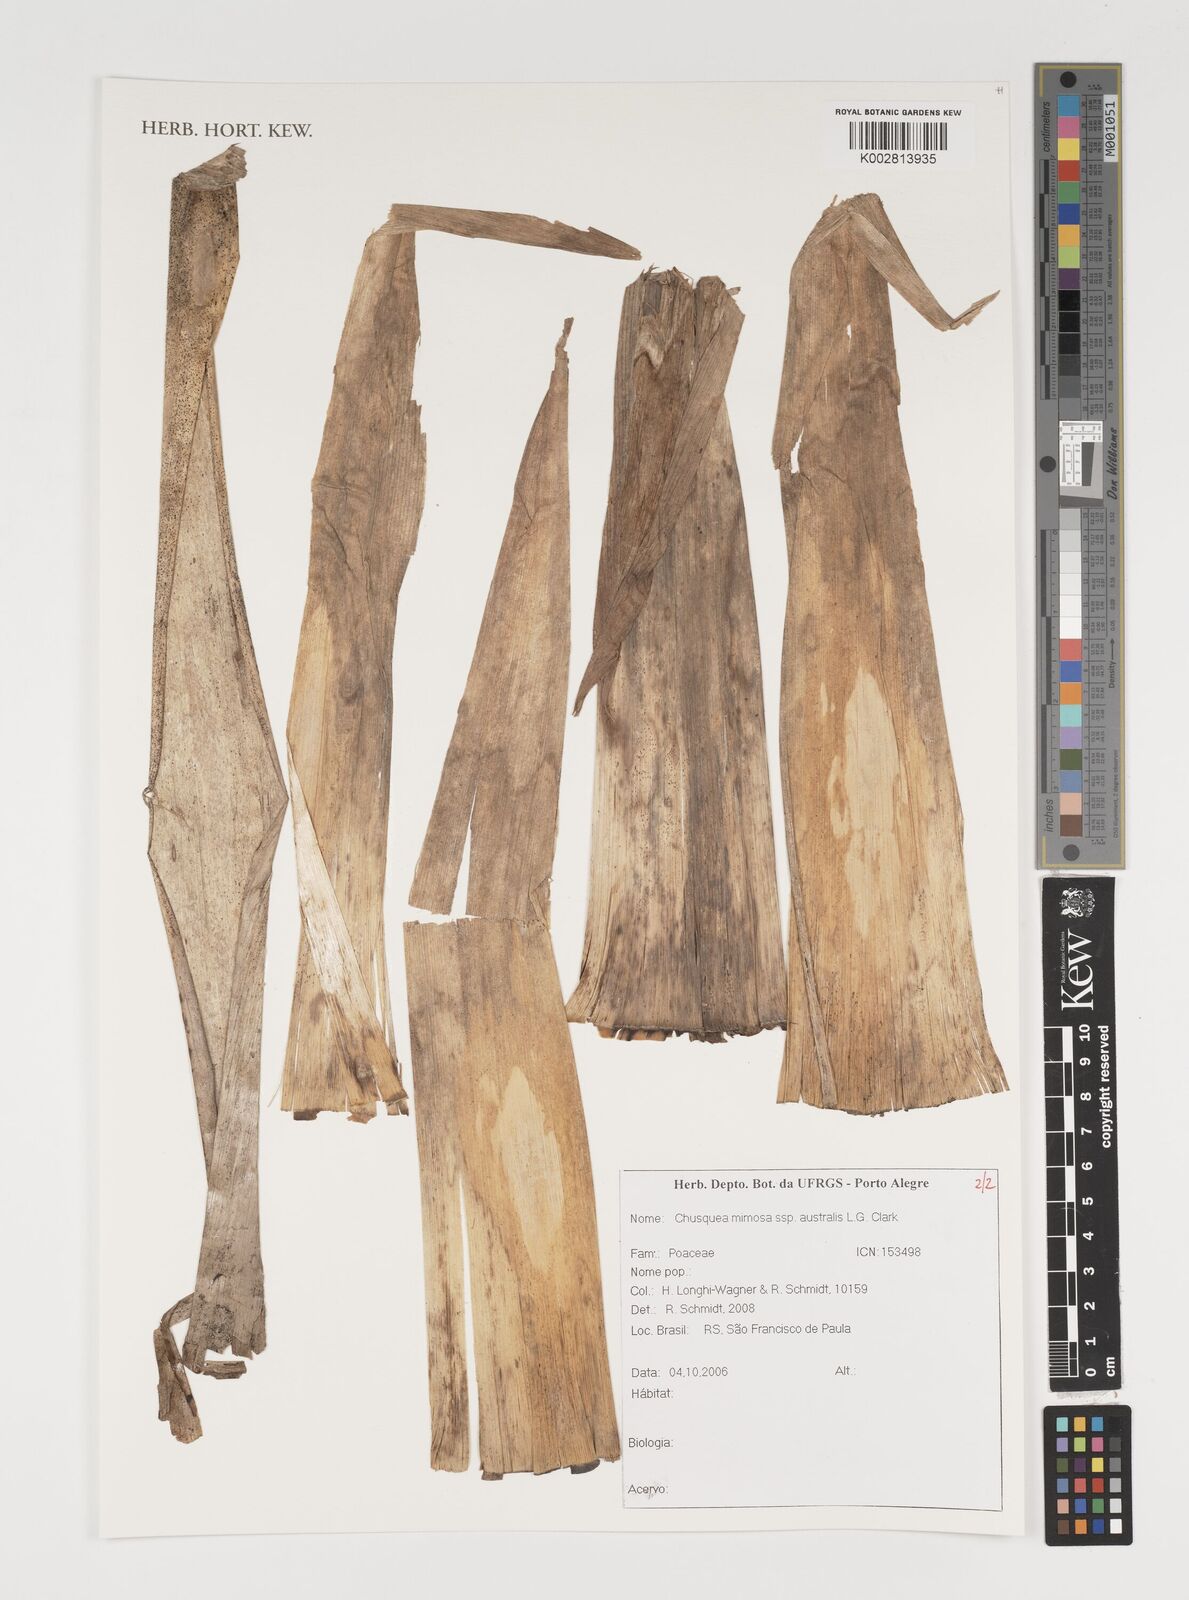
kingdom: Plantae
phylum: Tracheophyta
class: Liliopsida
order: Poales
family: Poaceae
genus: Chusquea
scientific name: Chusquea mimosa
